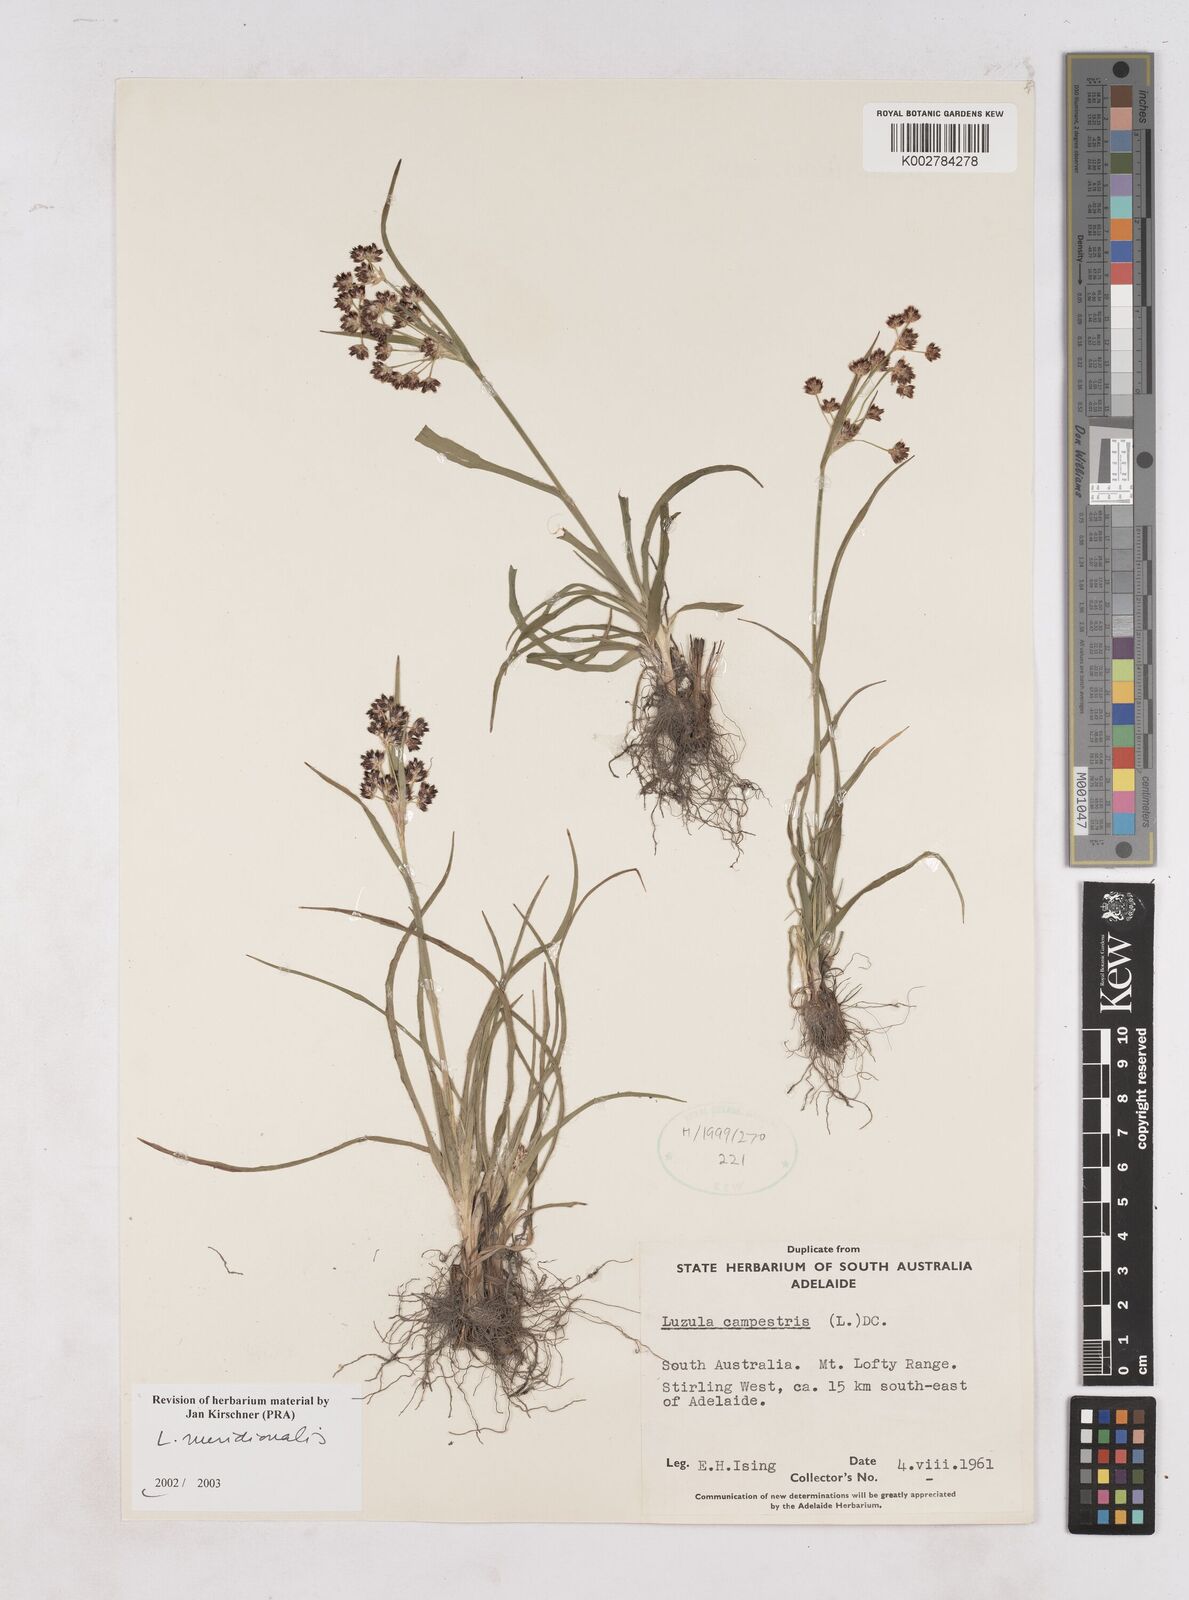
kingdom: Plantae
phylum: Tracheophyta
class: Liliopsida
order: Poales
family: Juncaceae
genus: Luzula
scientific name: Luzula meridionalis
